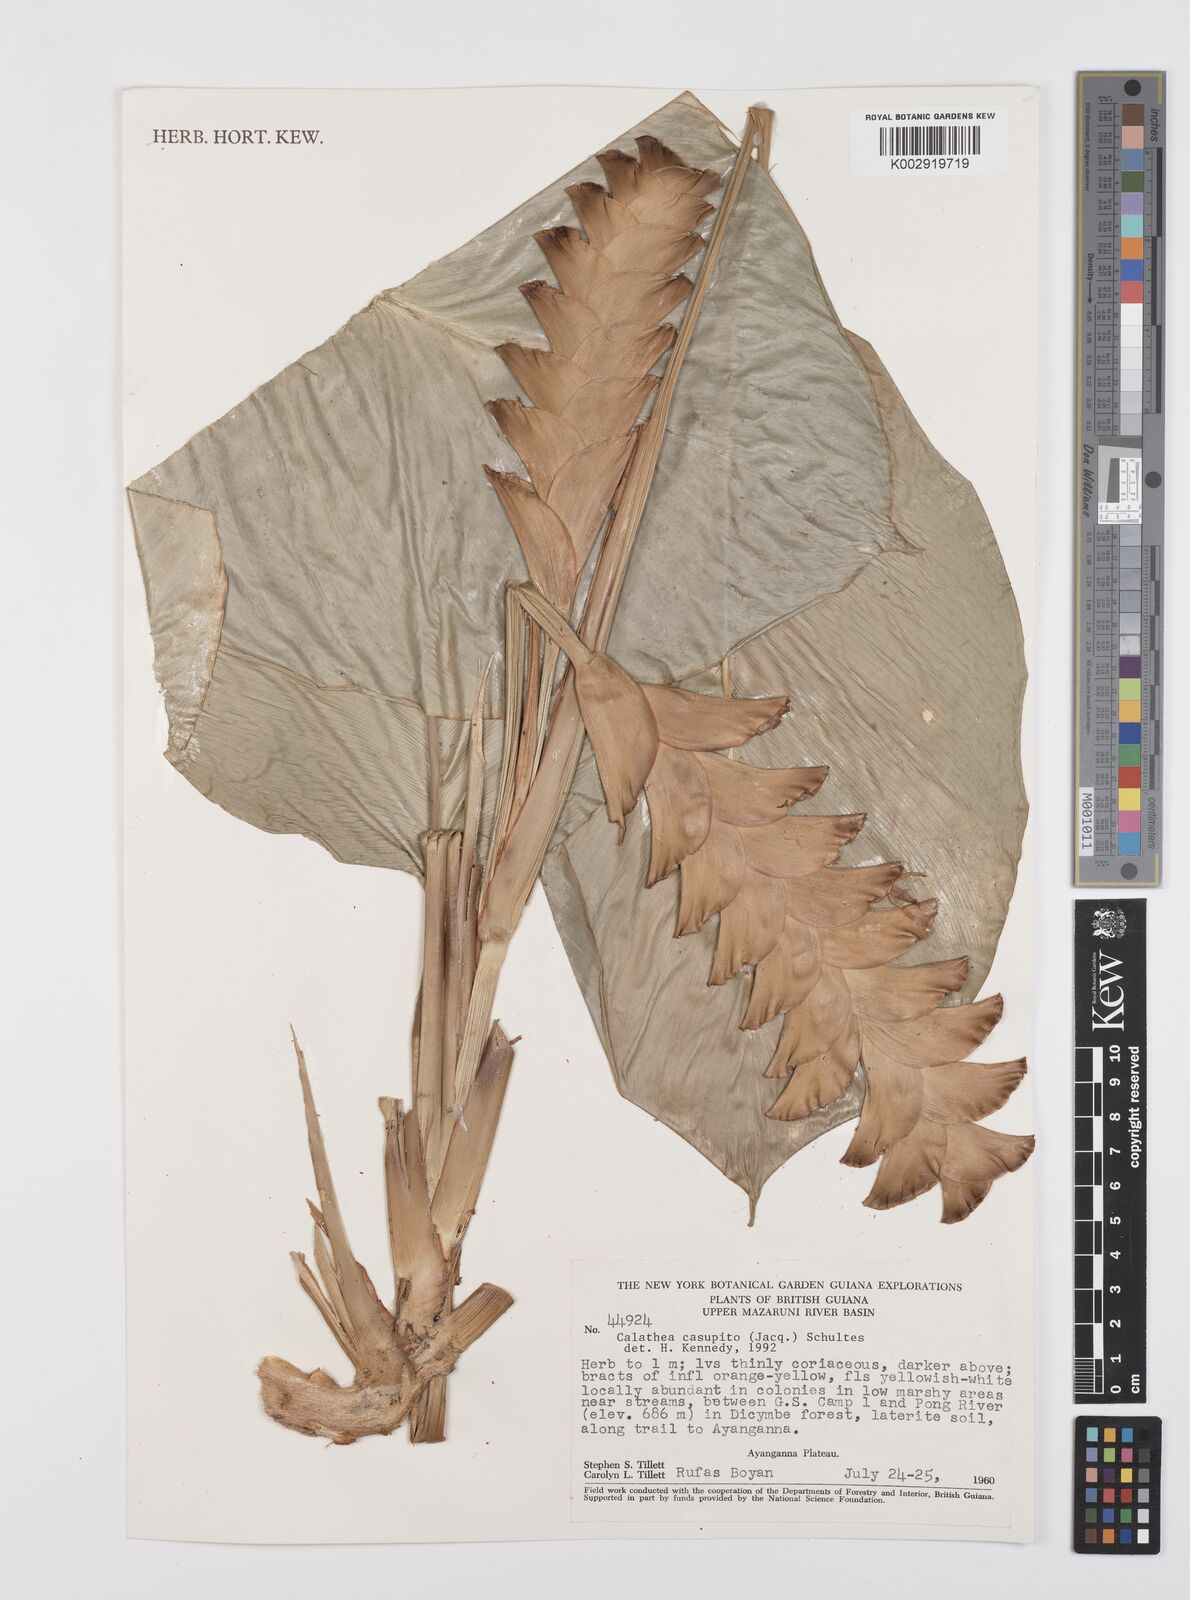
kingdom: Plantae
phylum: Tracheophyta
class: Liliopsida
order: Zingiberales
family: Marantaceae
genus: Calathea
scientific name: Calathea casupito
